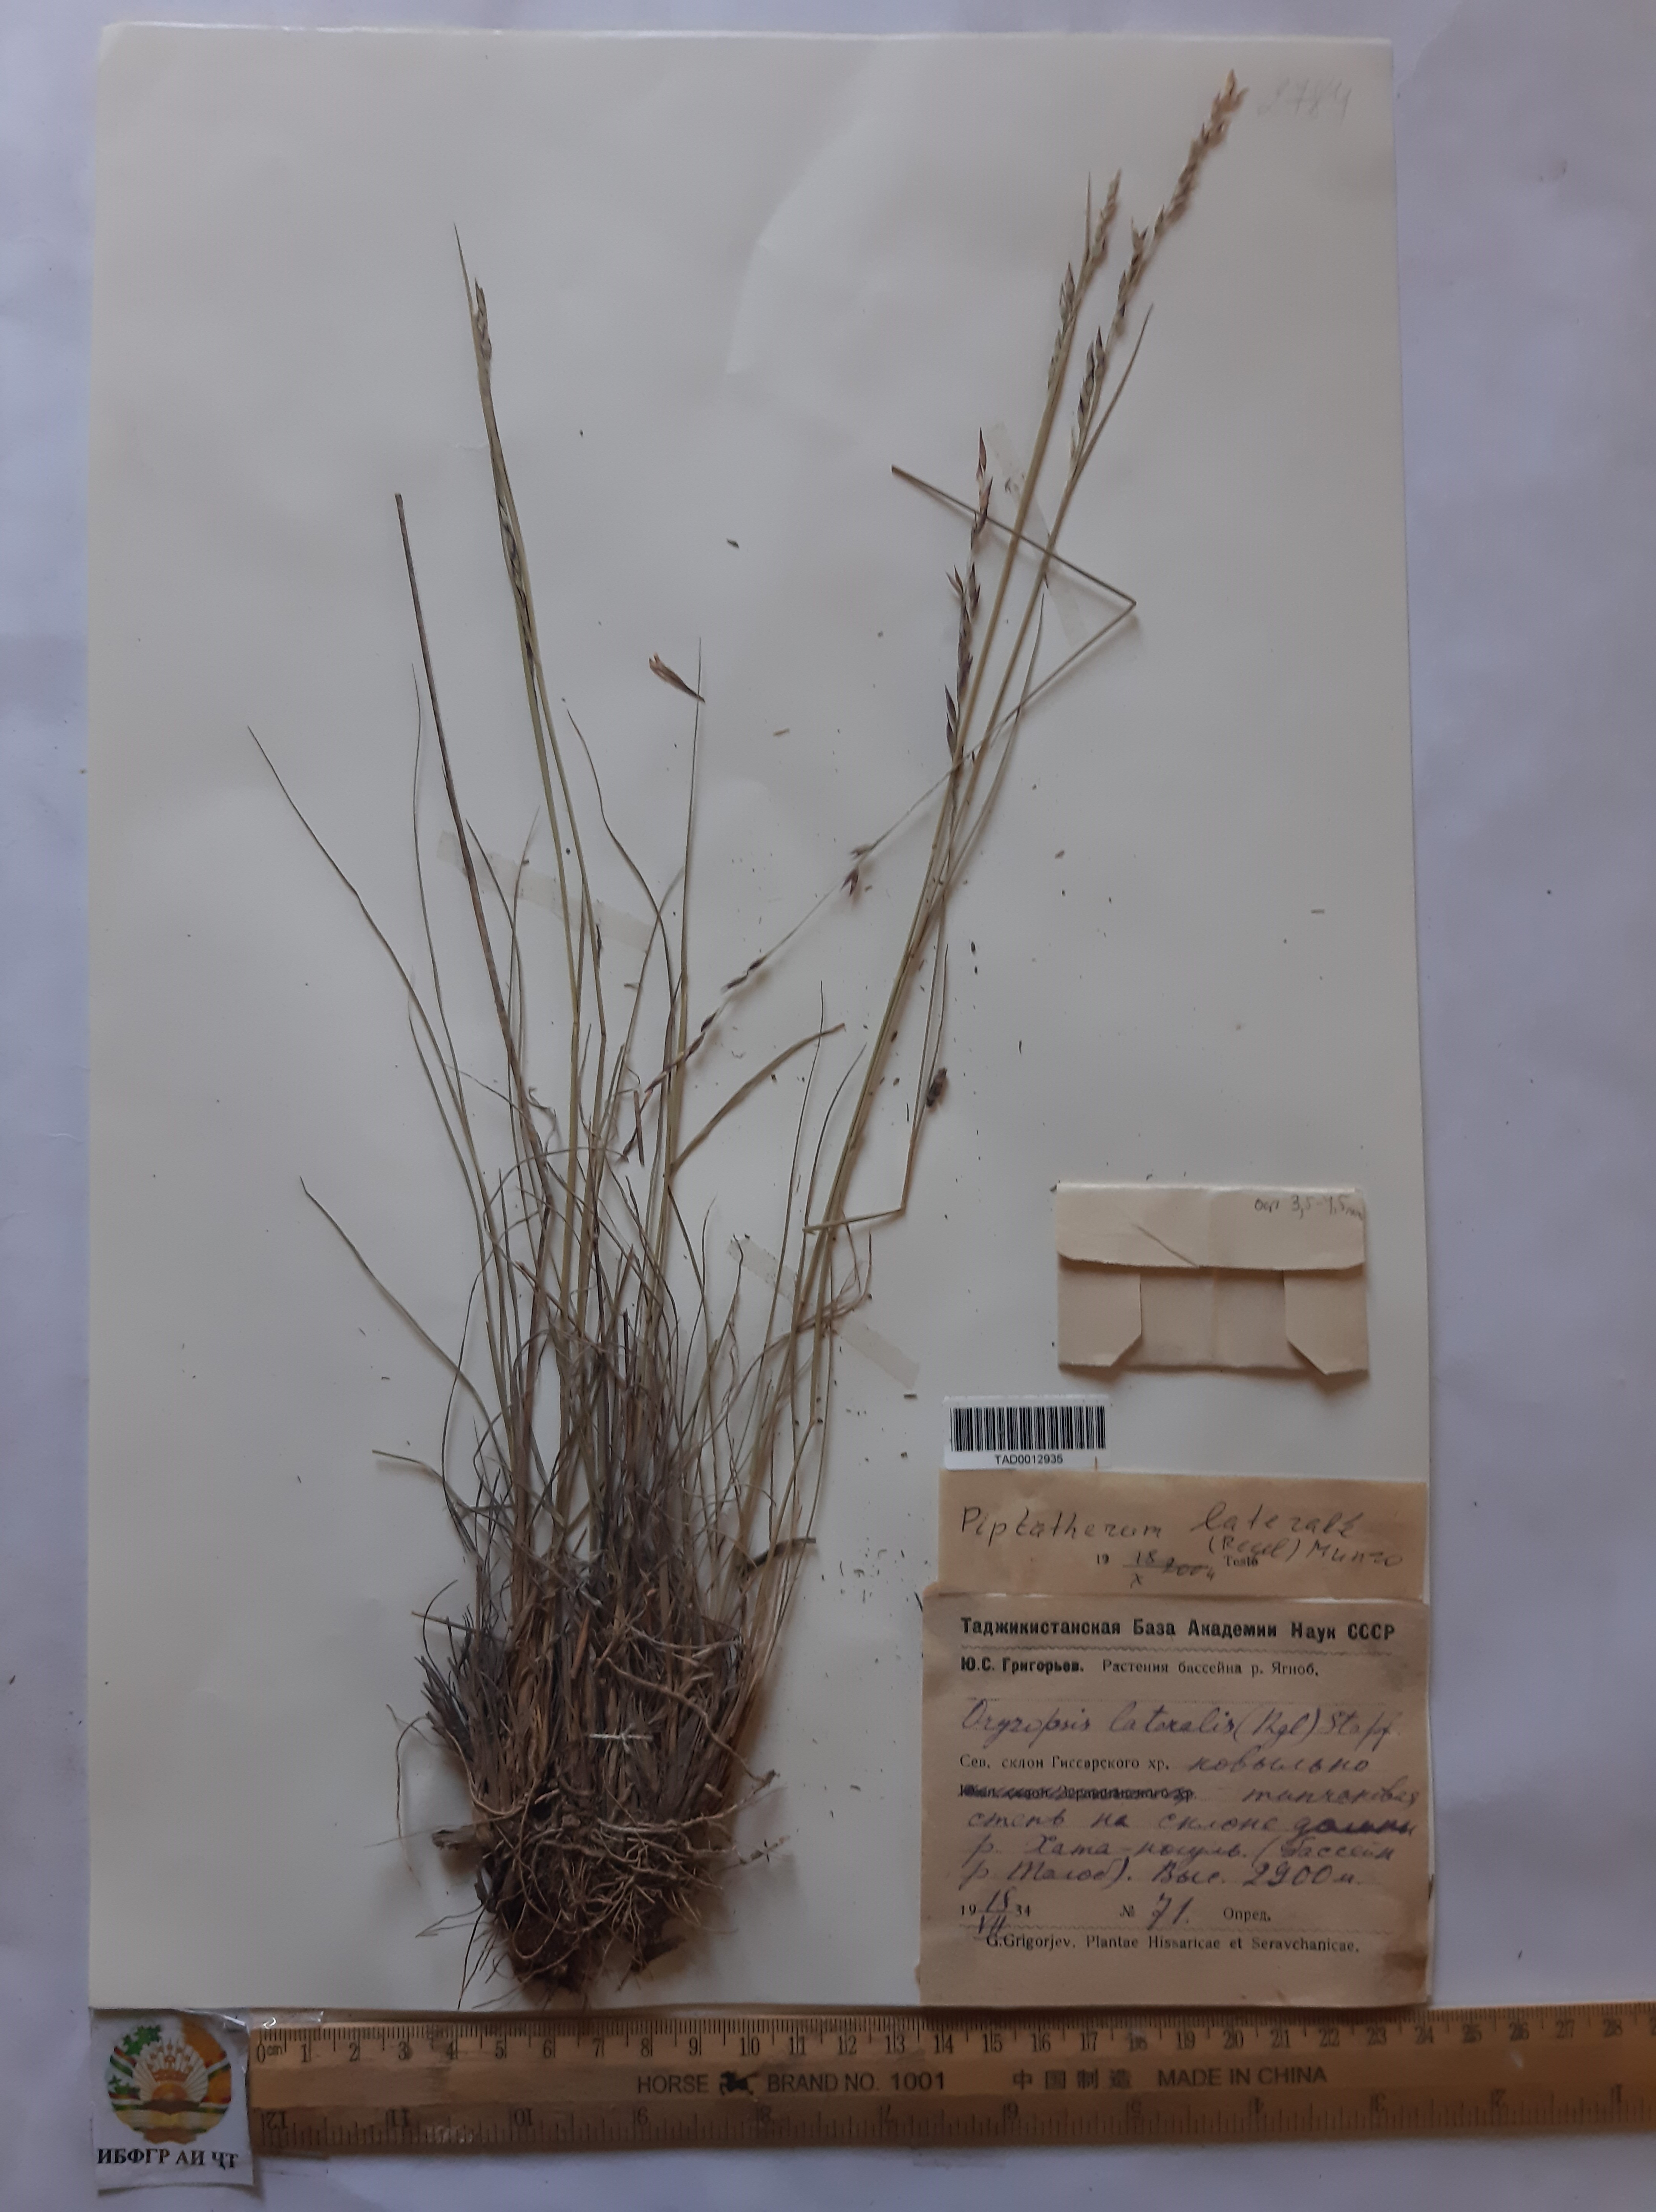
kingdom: Plantae
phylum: Tracheophyta
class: Liliopsida
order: Poales
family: Poaceae
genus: Piptatherum
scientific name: Piptatherum laterale
